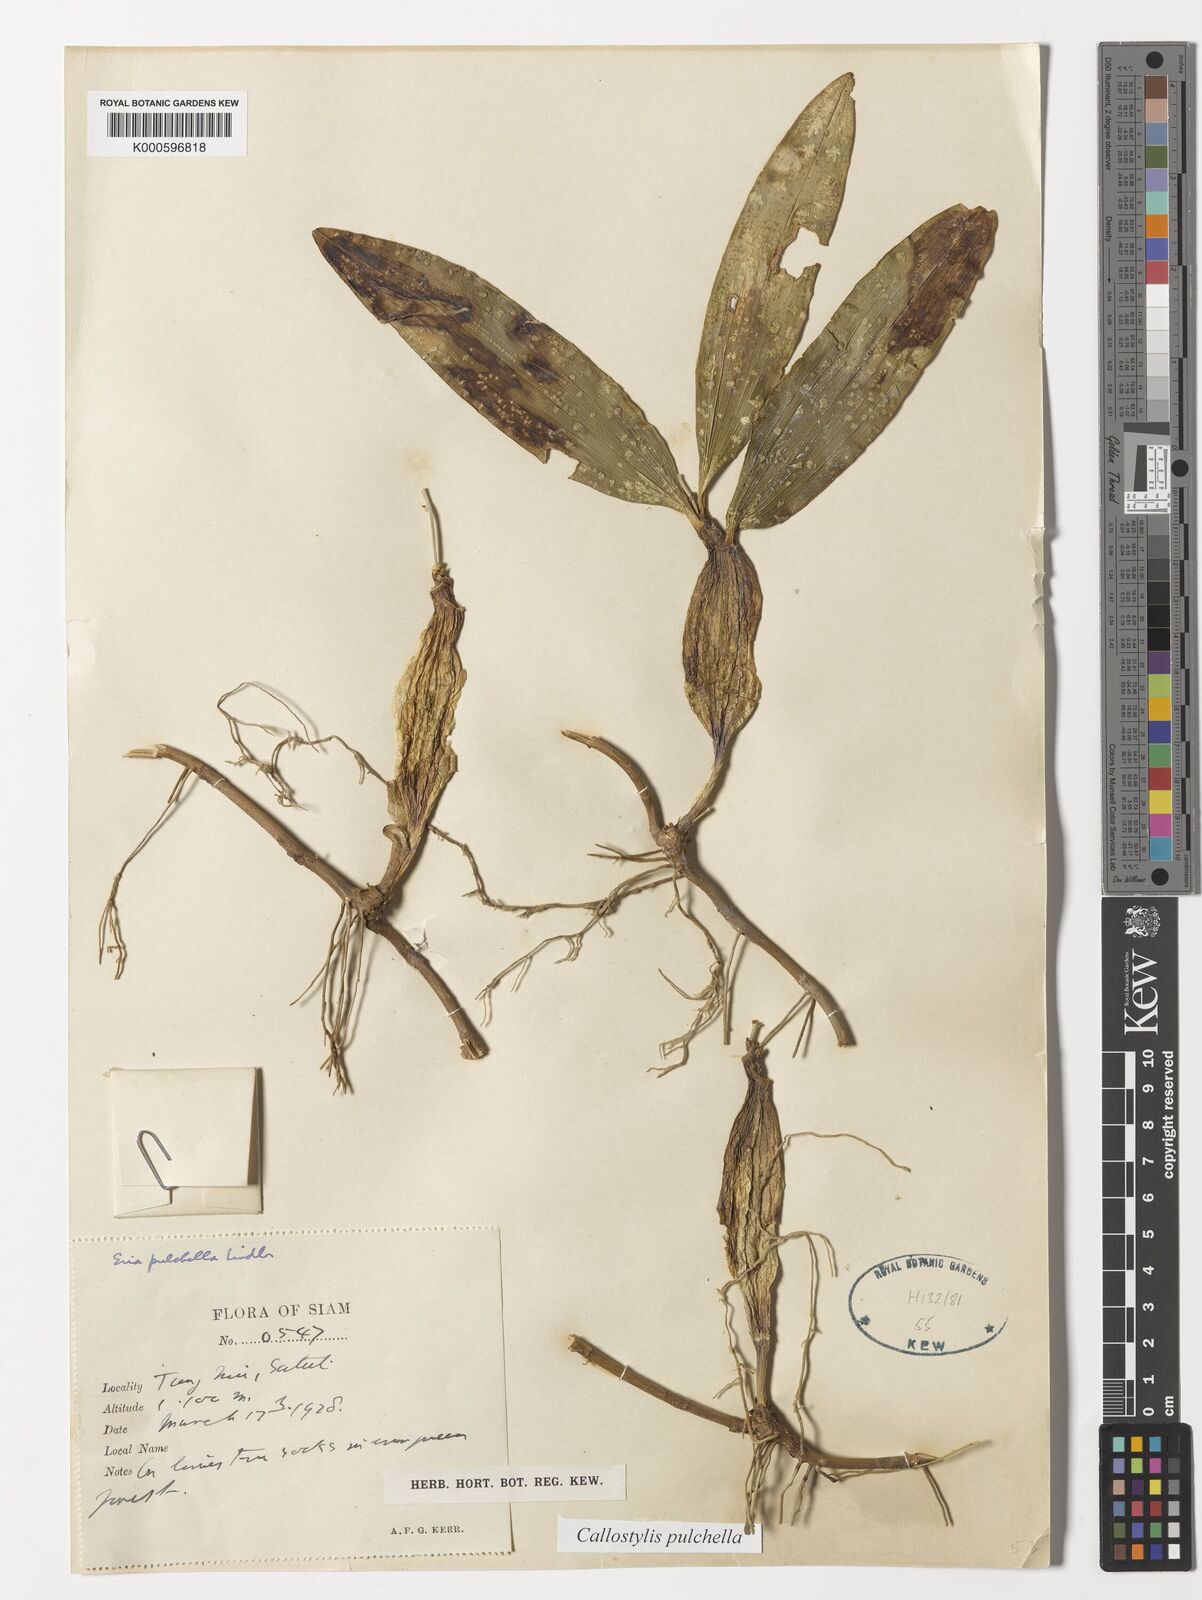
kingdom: Plantae
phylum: Tracheophyta
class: Liliopsida
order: Asparagales
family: Orchidaceae
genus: Callostylis
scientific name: Callostylis pulchella
